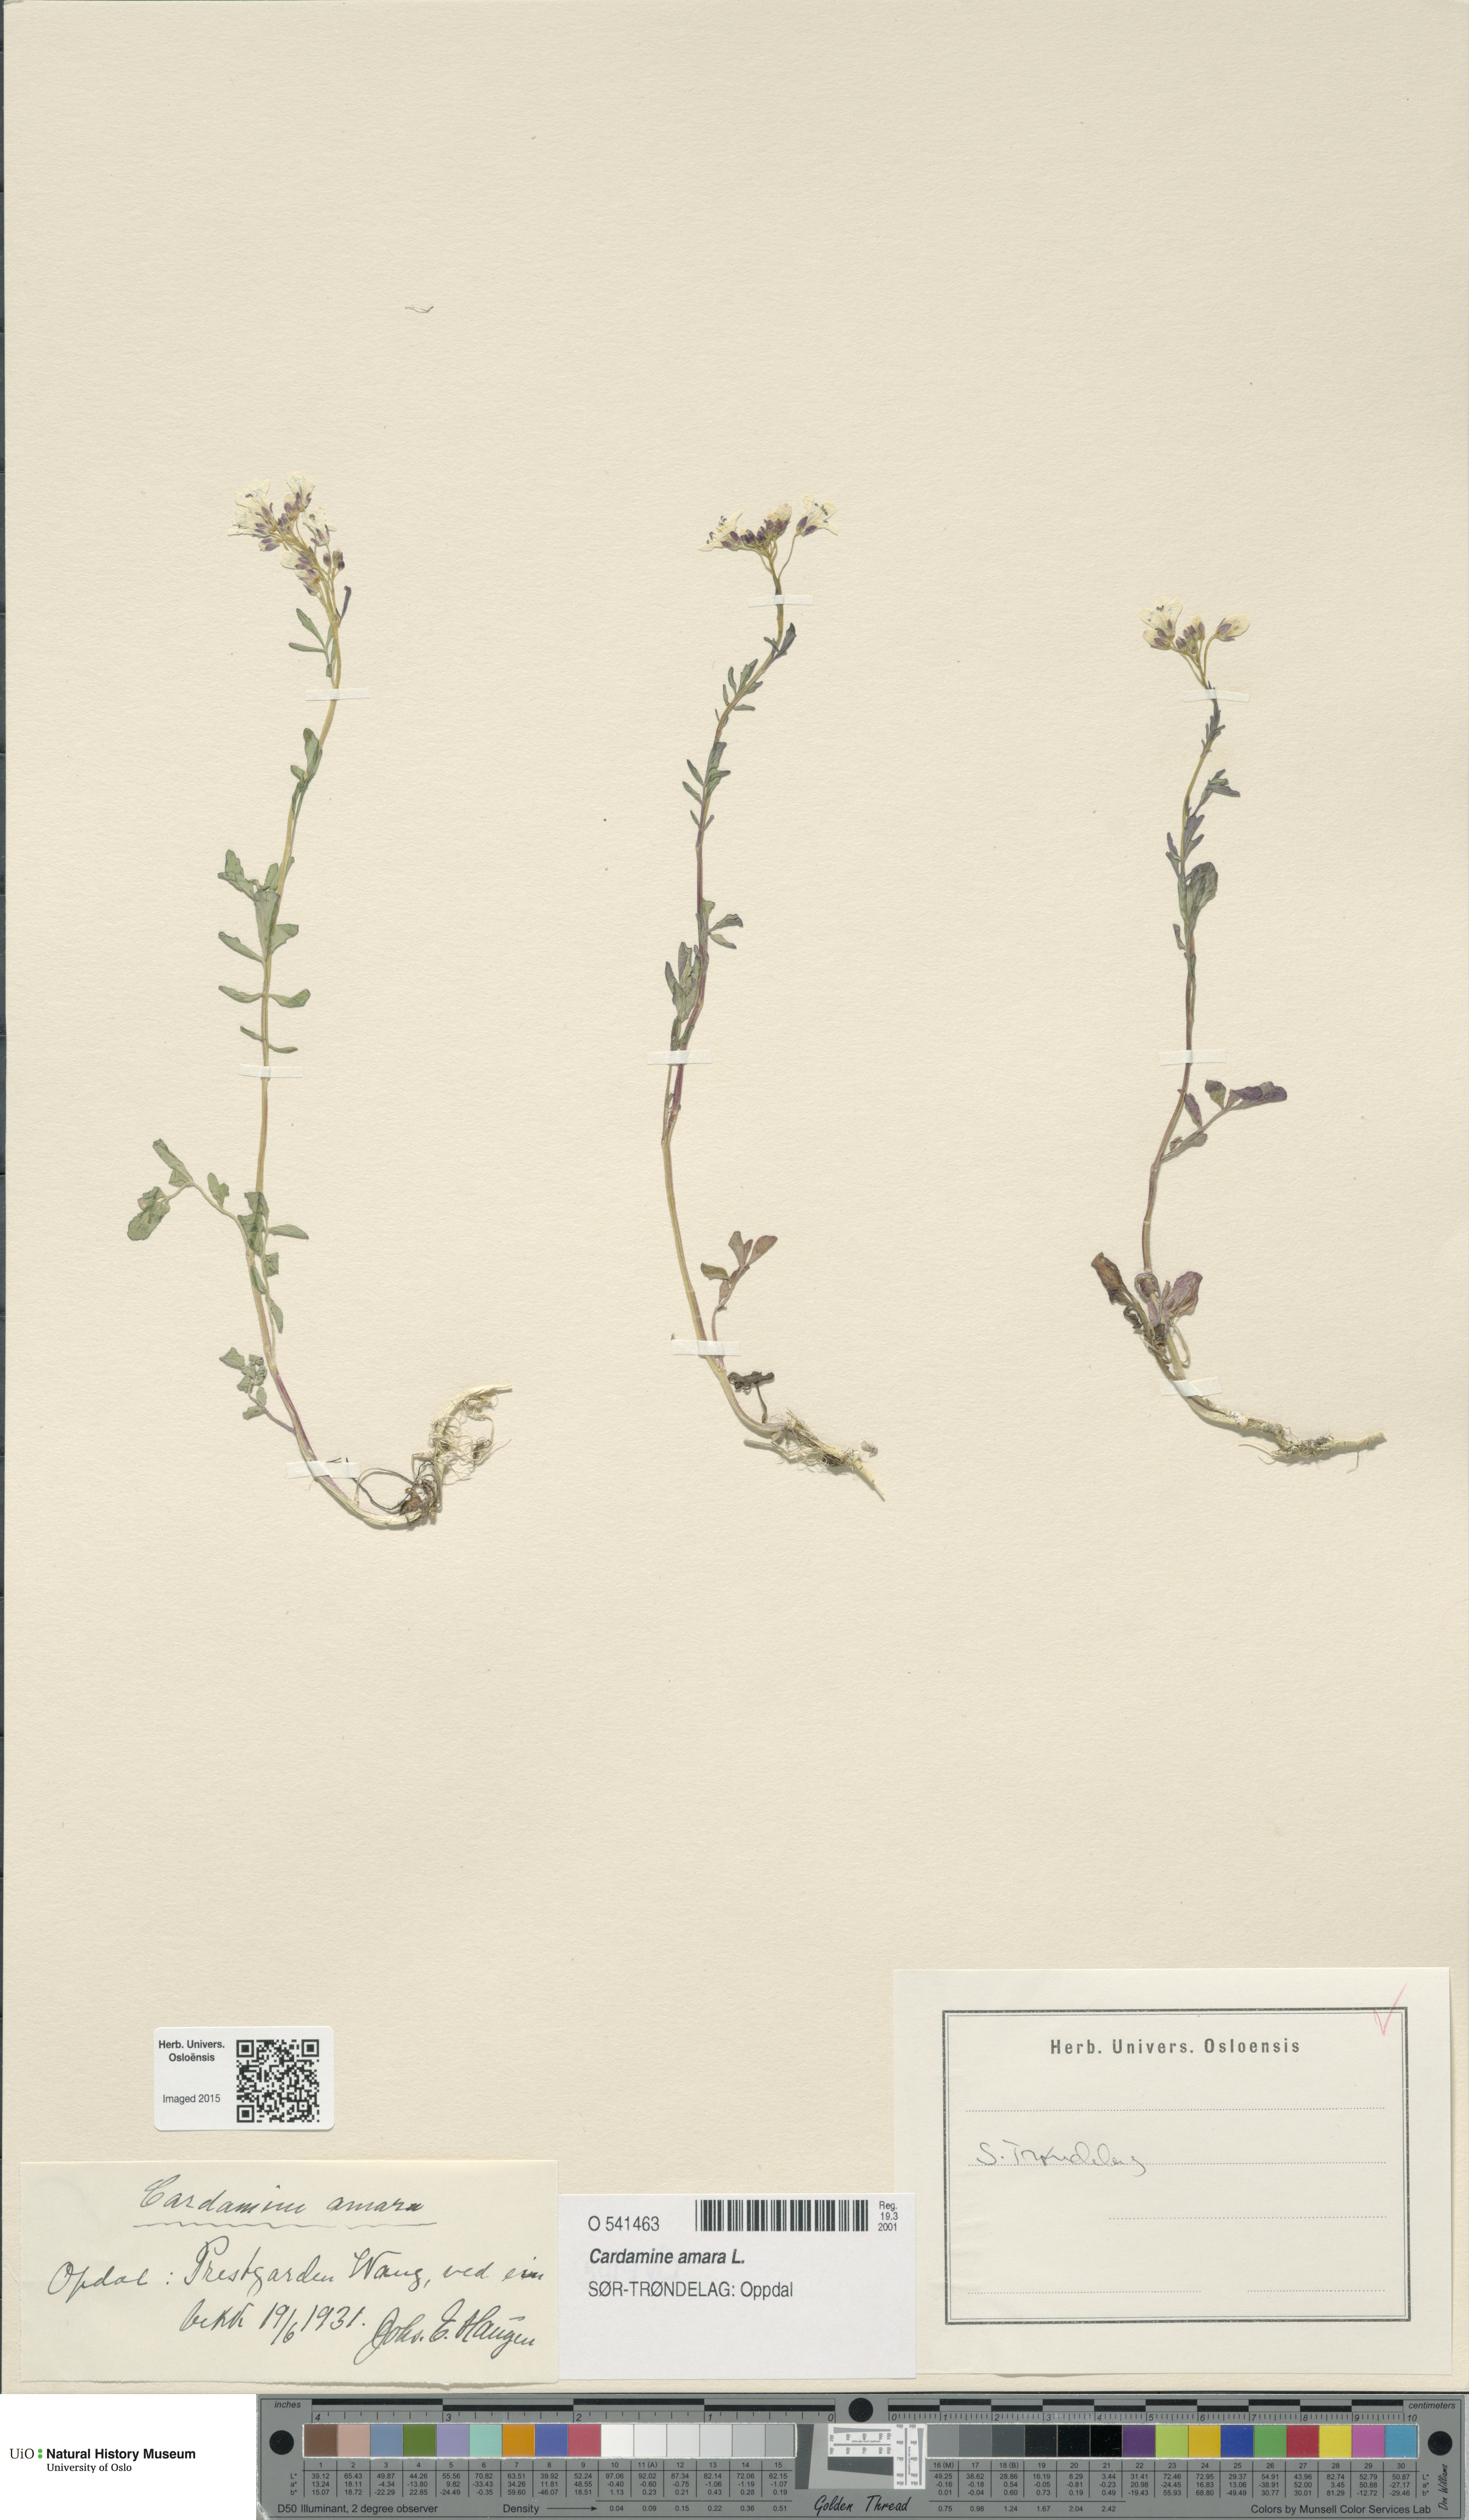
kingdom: Plantae
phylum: Tracheophyta
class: Magnoliopsida
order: Brassicales
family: Brassicaceae
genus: Cardamine
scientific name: Cardamine amara
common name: Large bitter-cress
